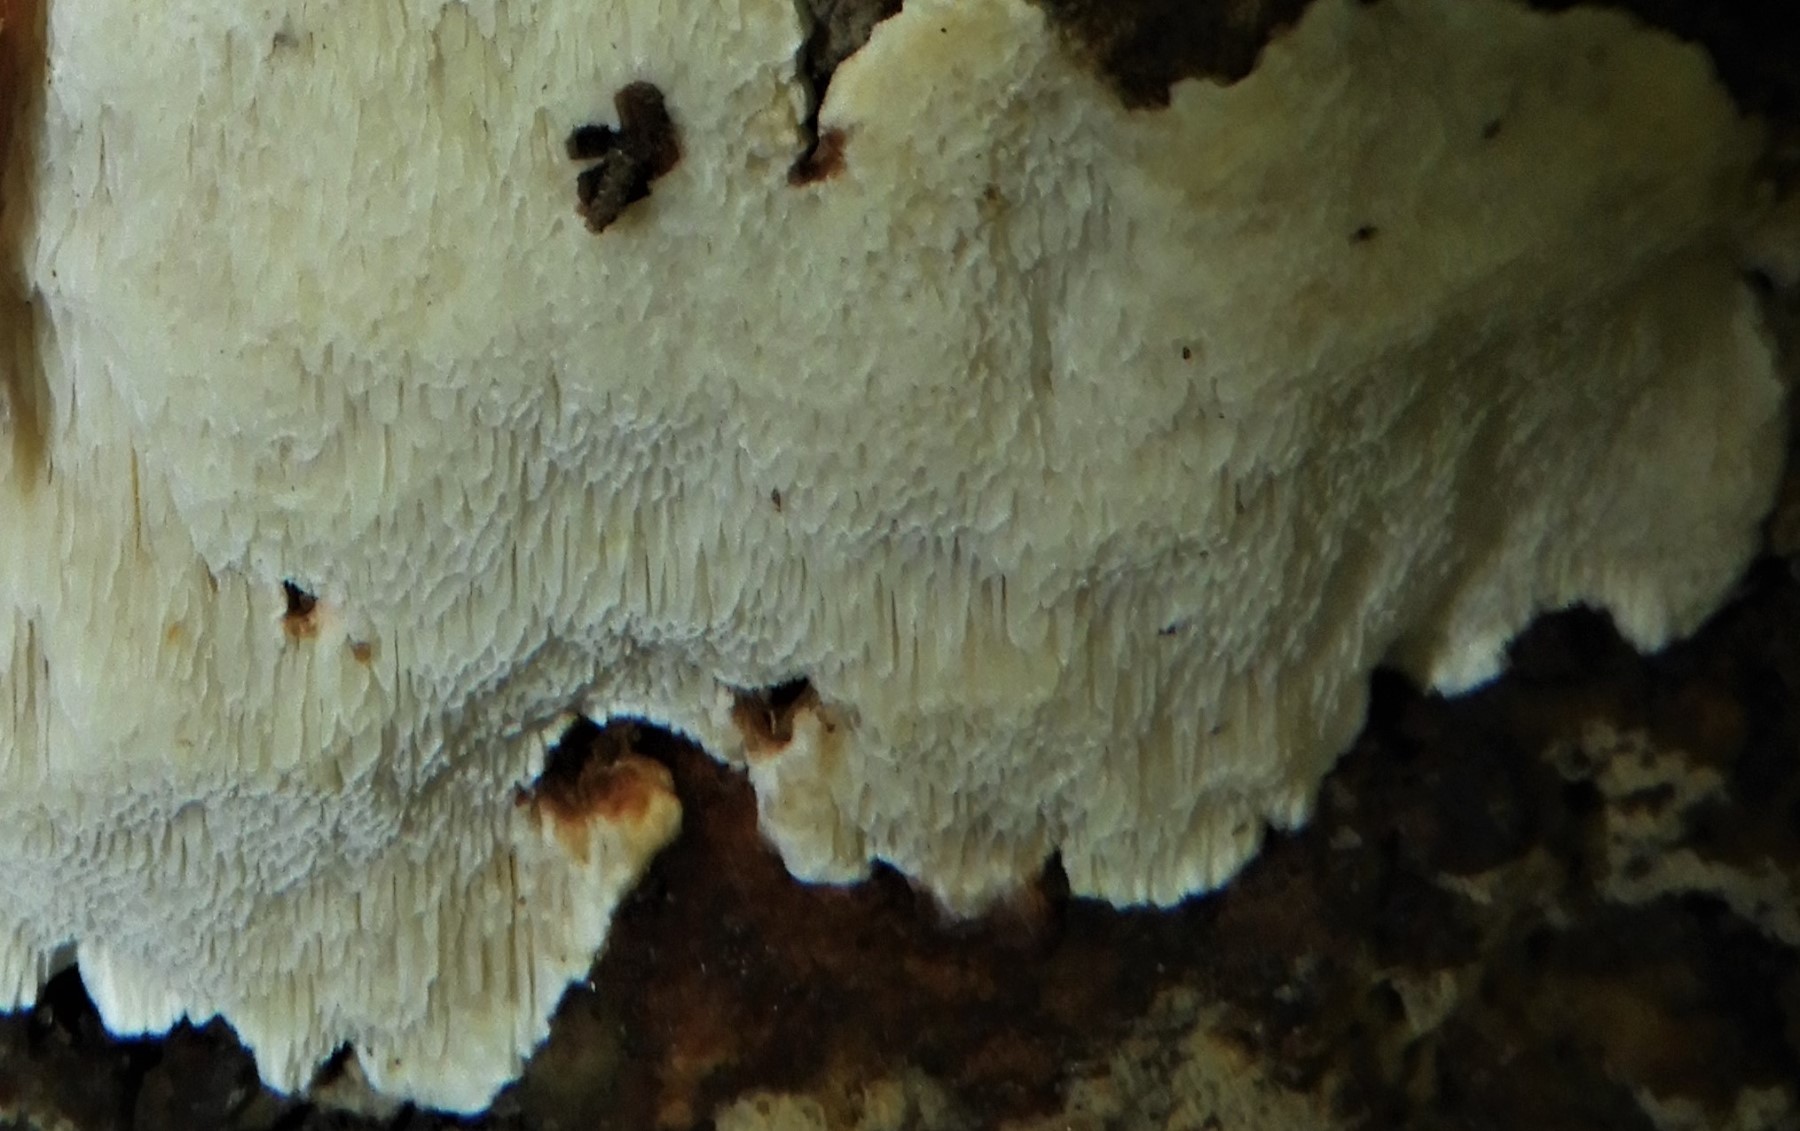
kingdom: Fungi
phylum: Basidiomycota
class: Agaricomycetes
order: Polyporales
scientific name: Polyporales
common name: poresvampordenen
